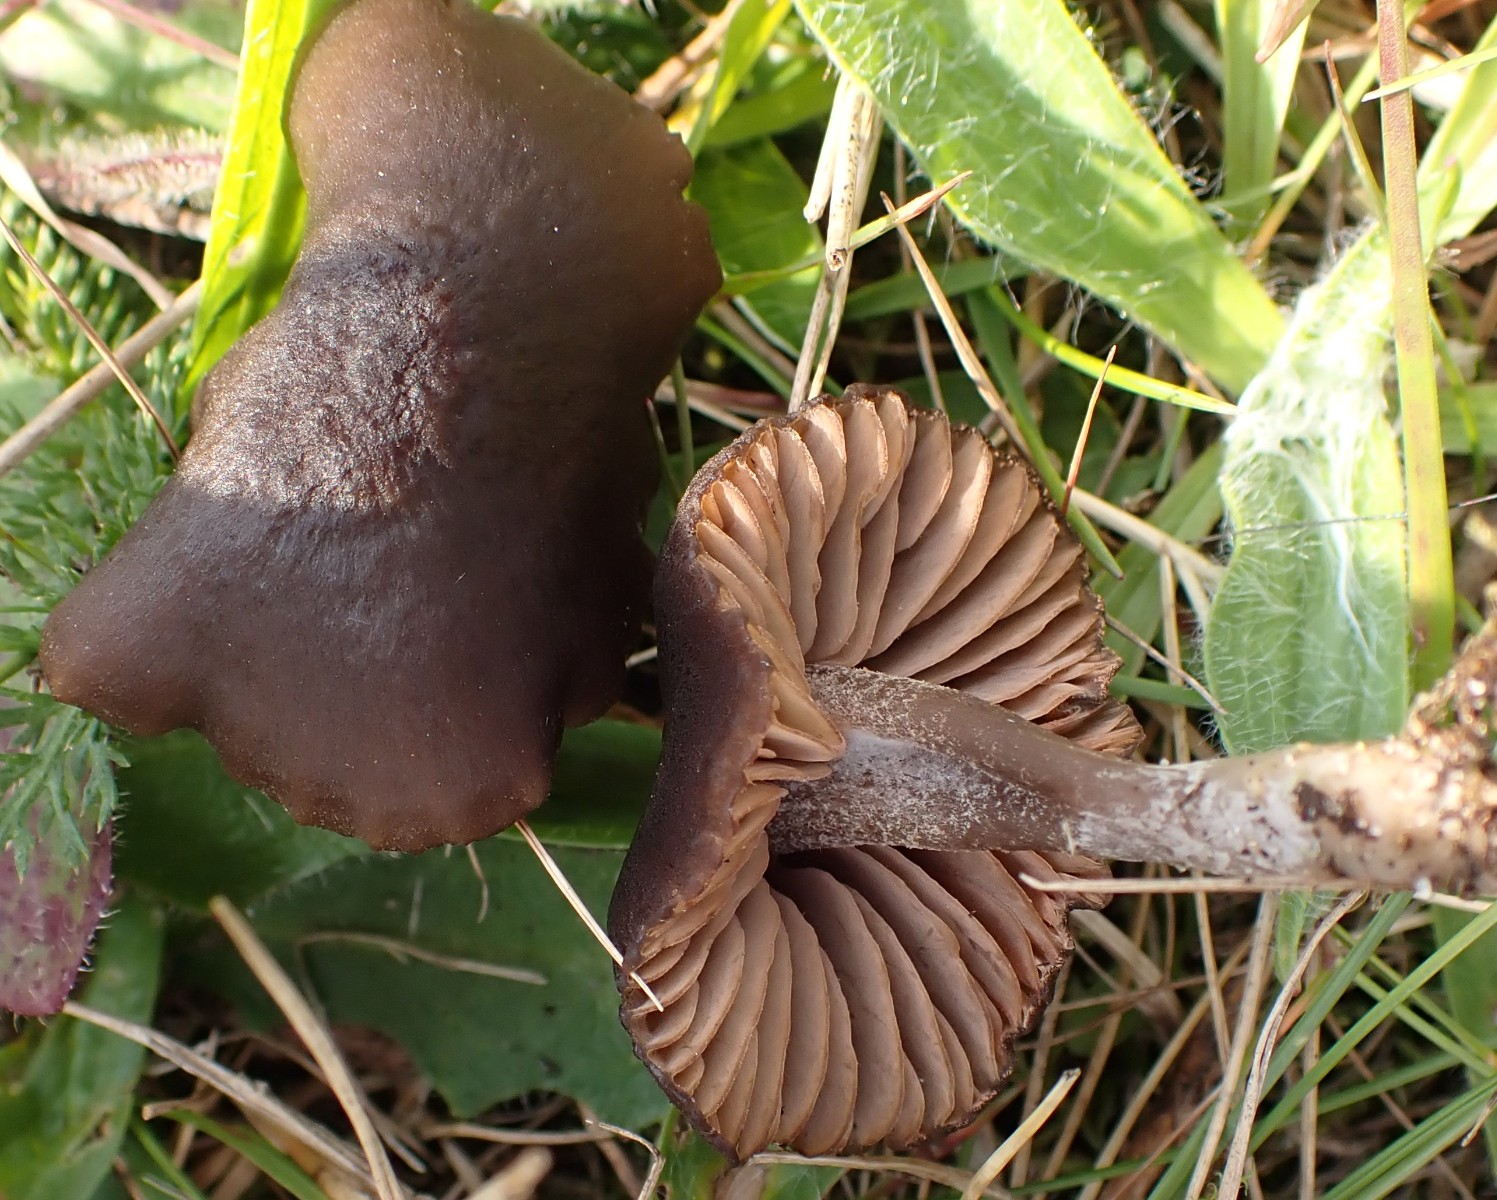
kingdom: Fungi
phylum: Basidiomycota
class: Agaricomycetes
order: Agaricales
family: Entolomataceae
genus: Entoloma
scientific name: Entoloma
